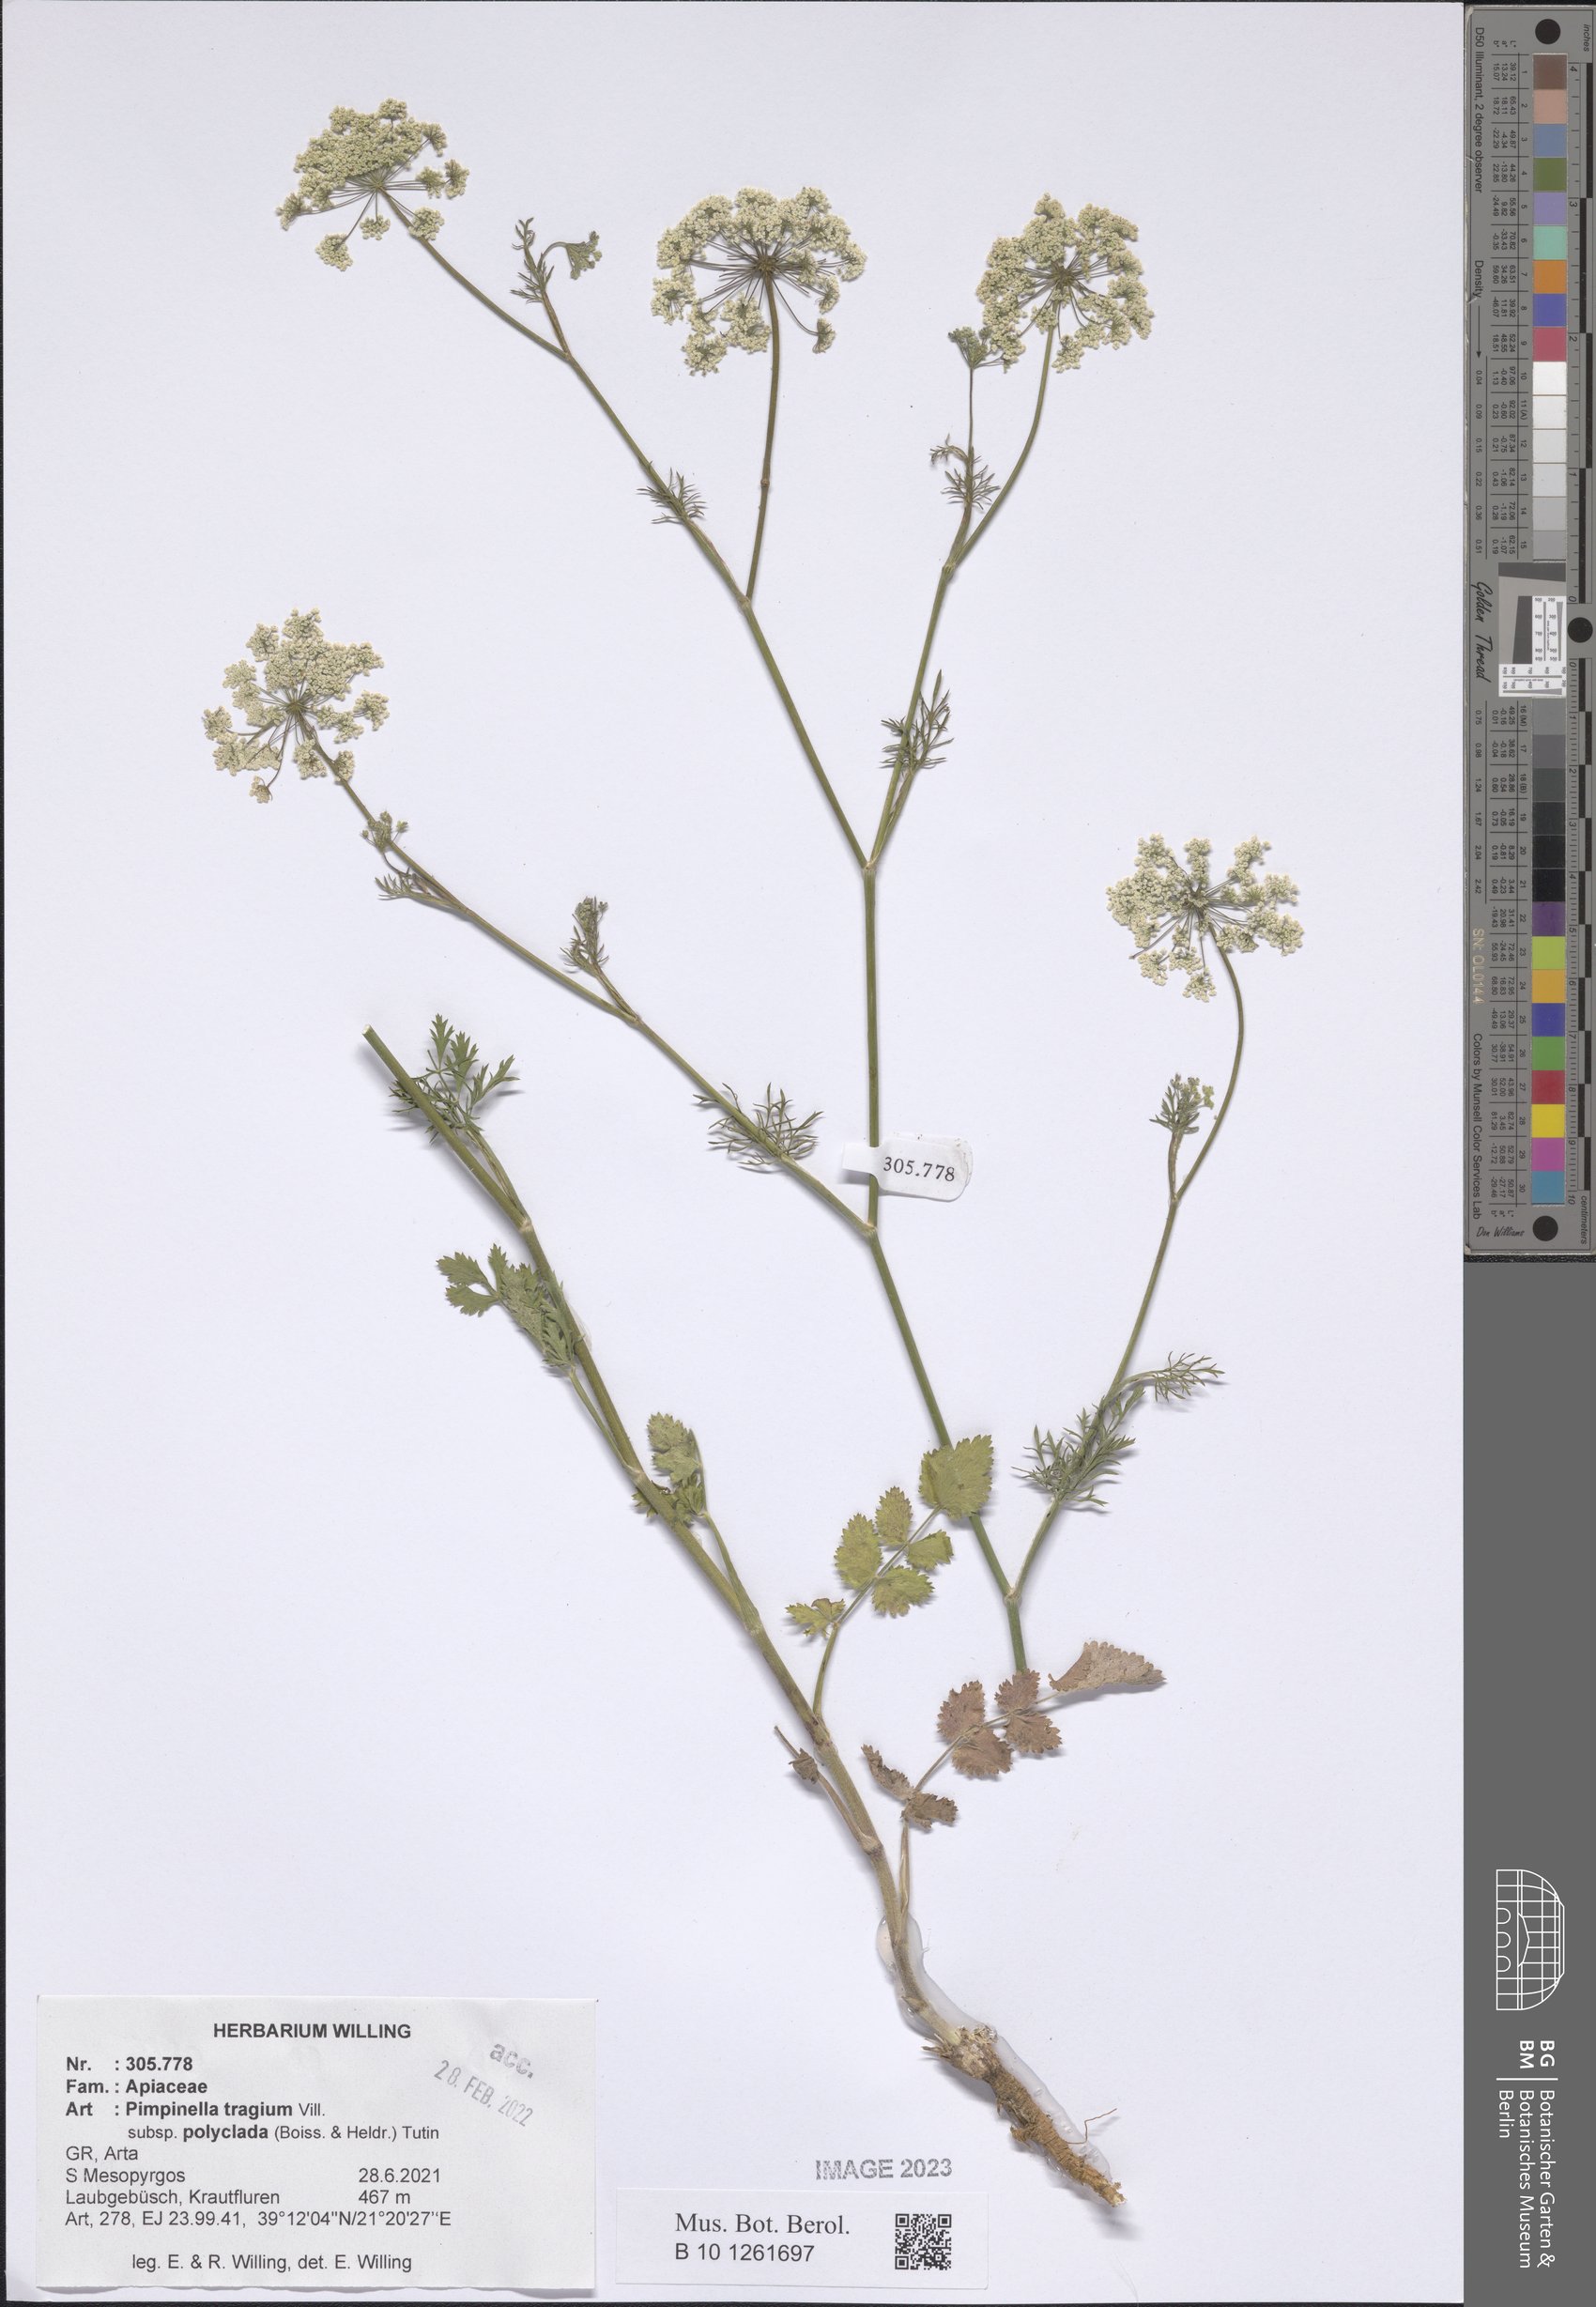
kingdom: Plantae
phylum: Tracheophyta
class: Magnoliopsida
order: Apiales
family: Apiaceae
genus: Pimpinella
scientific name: Pimpinella tragium
